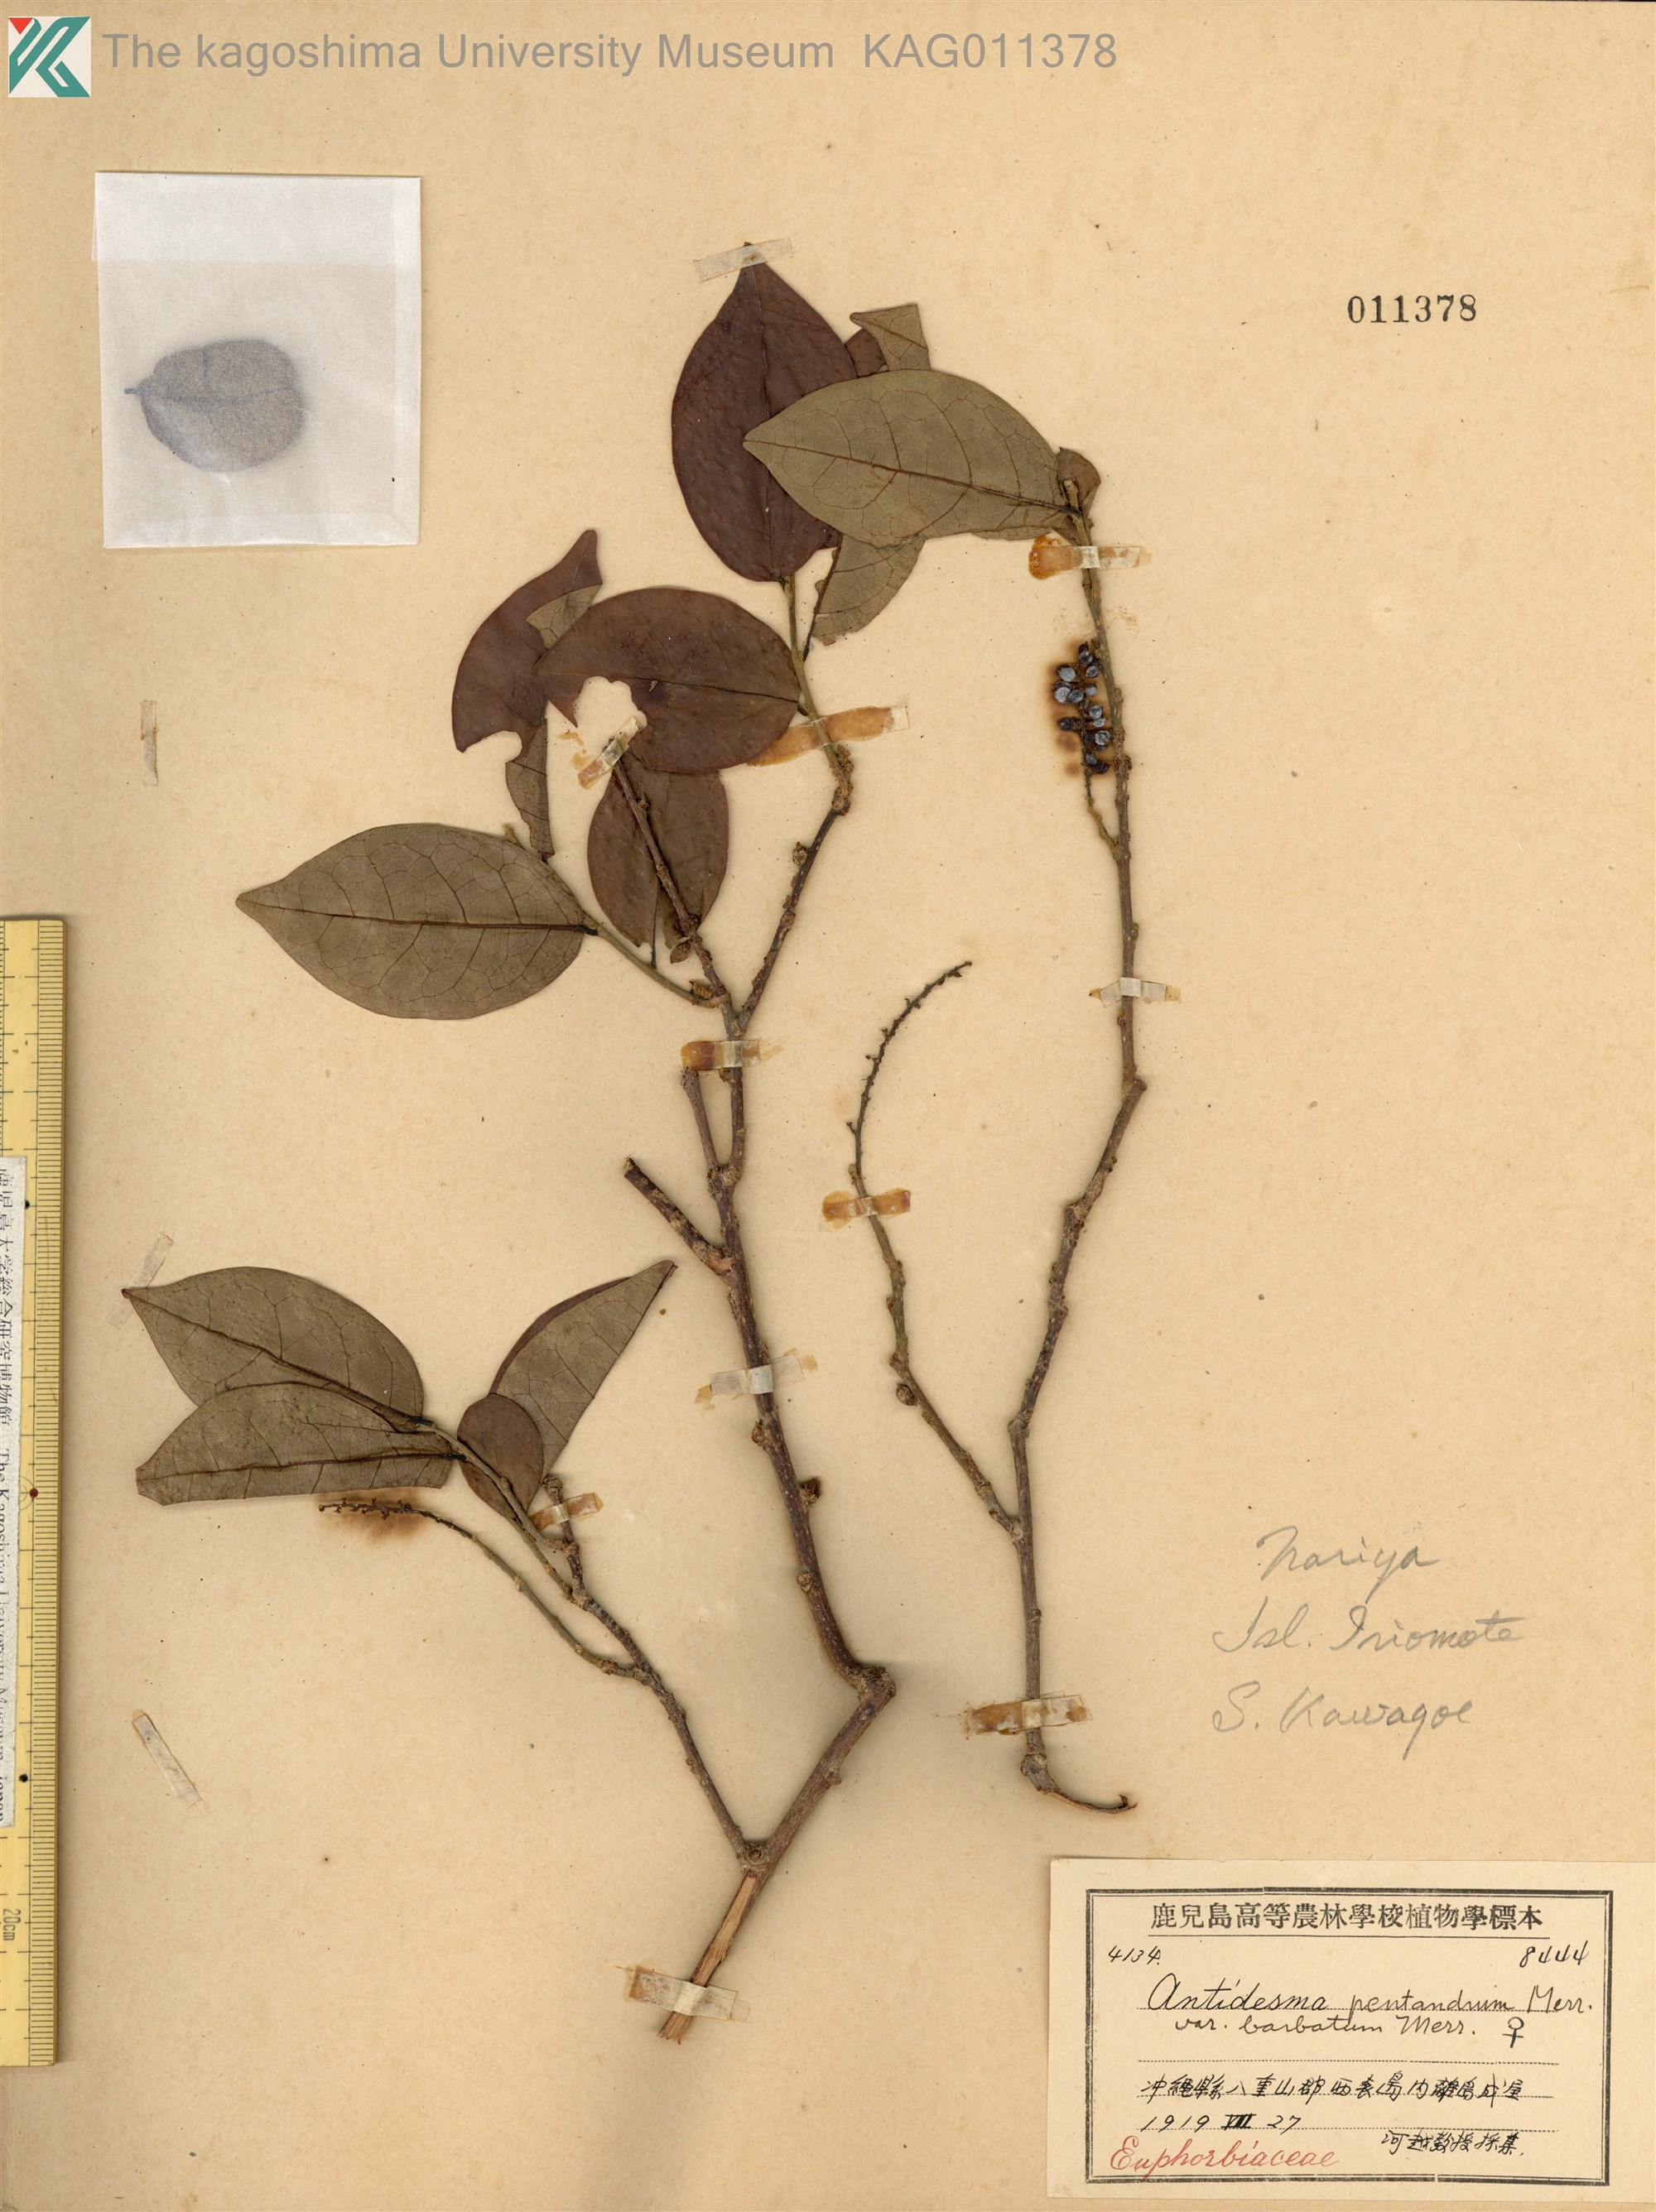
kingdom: Plantae
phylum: Tracheophyta
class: Magnoliopsida
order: Malpighiales
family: Phyllanthaceae
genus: Antidesma
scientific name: Antidesma montanum
